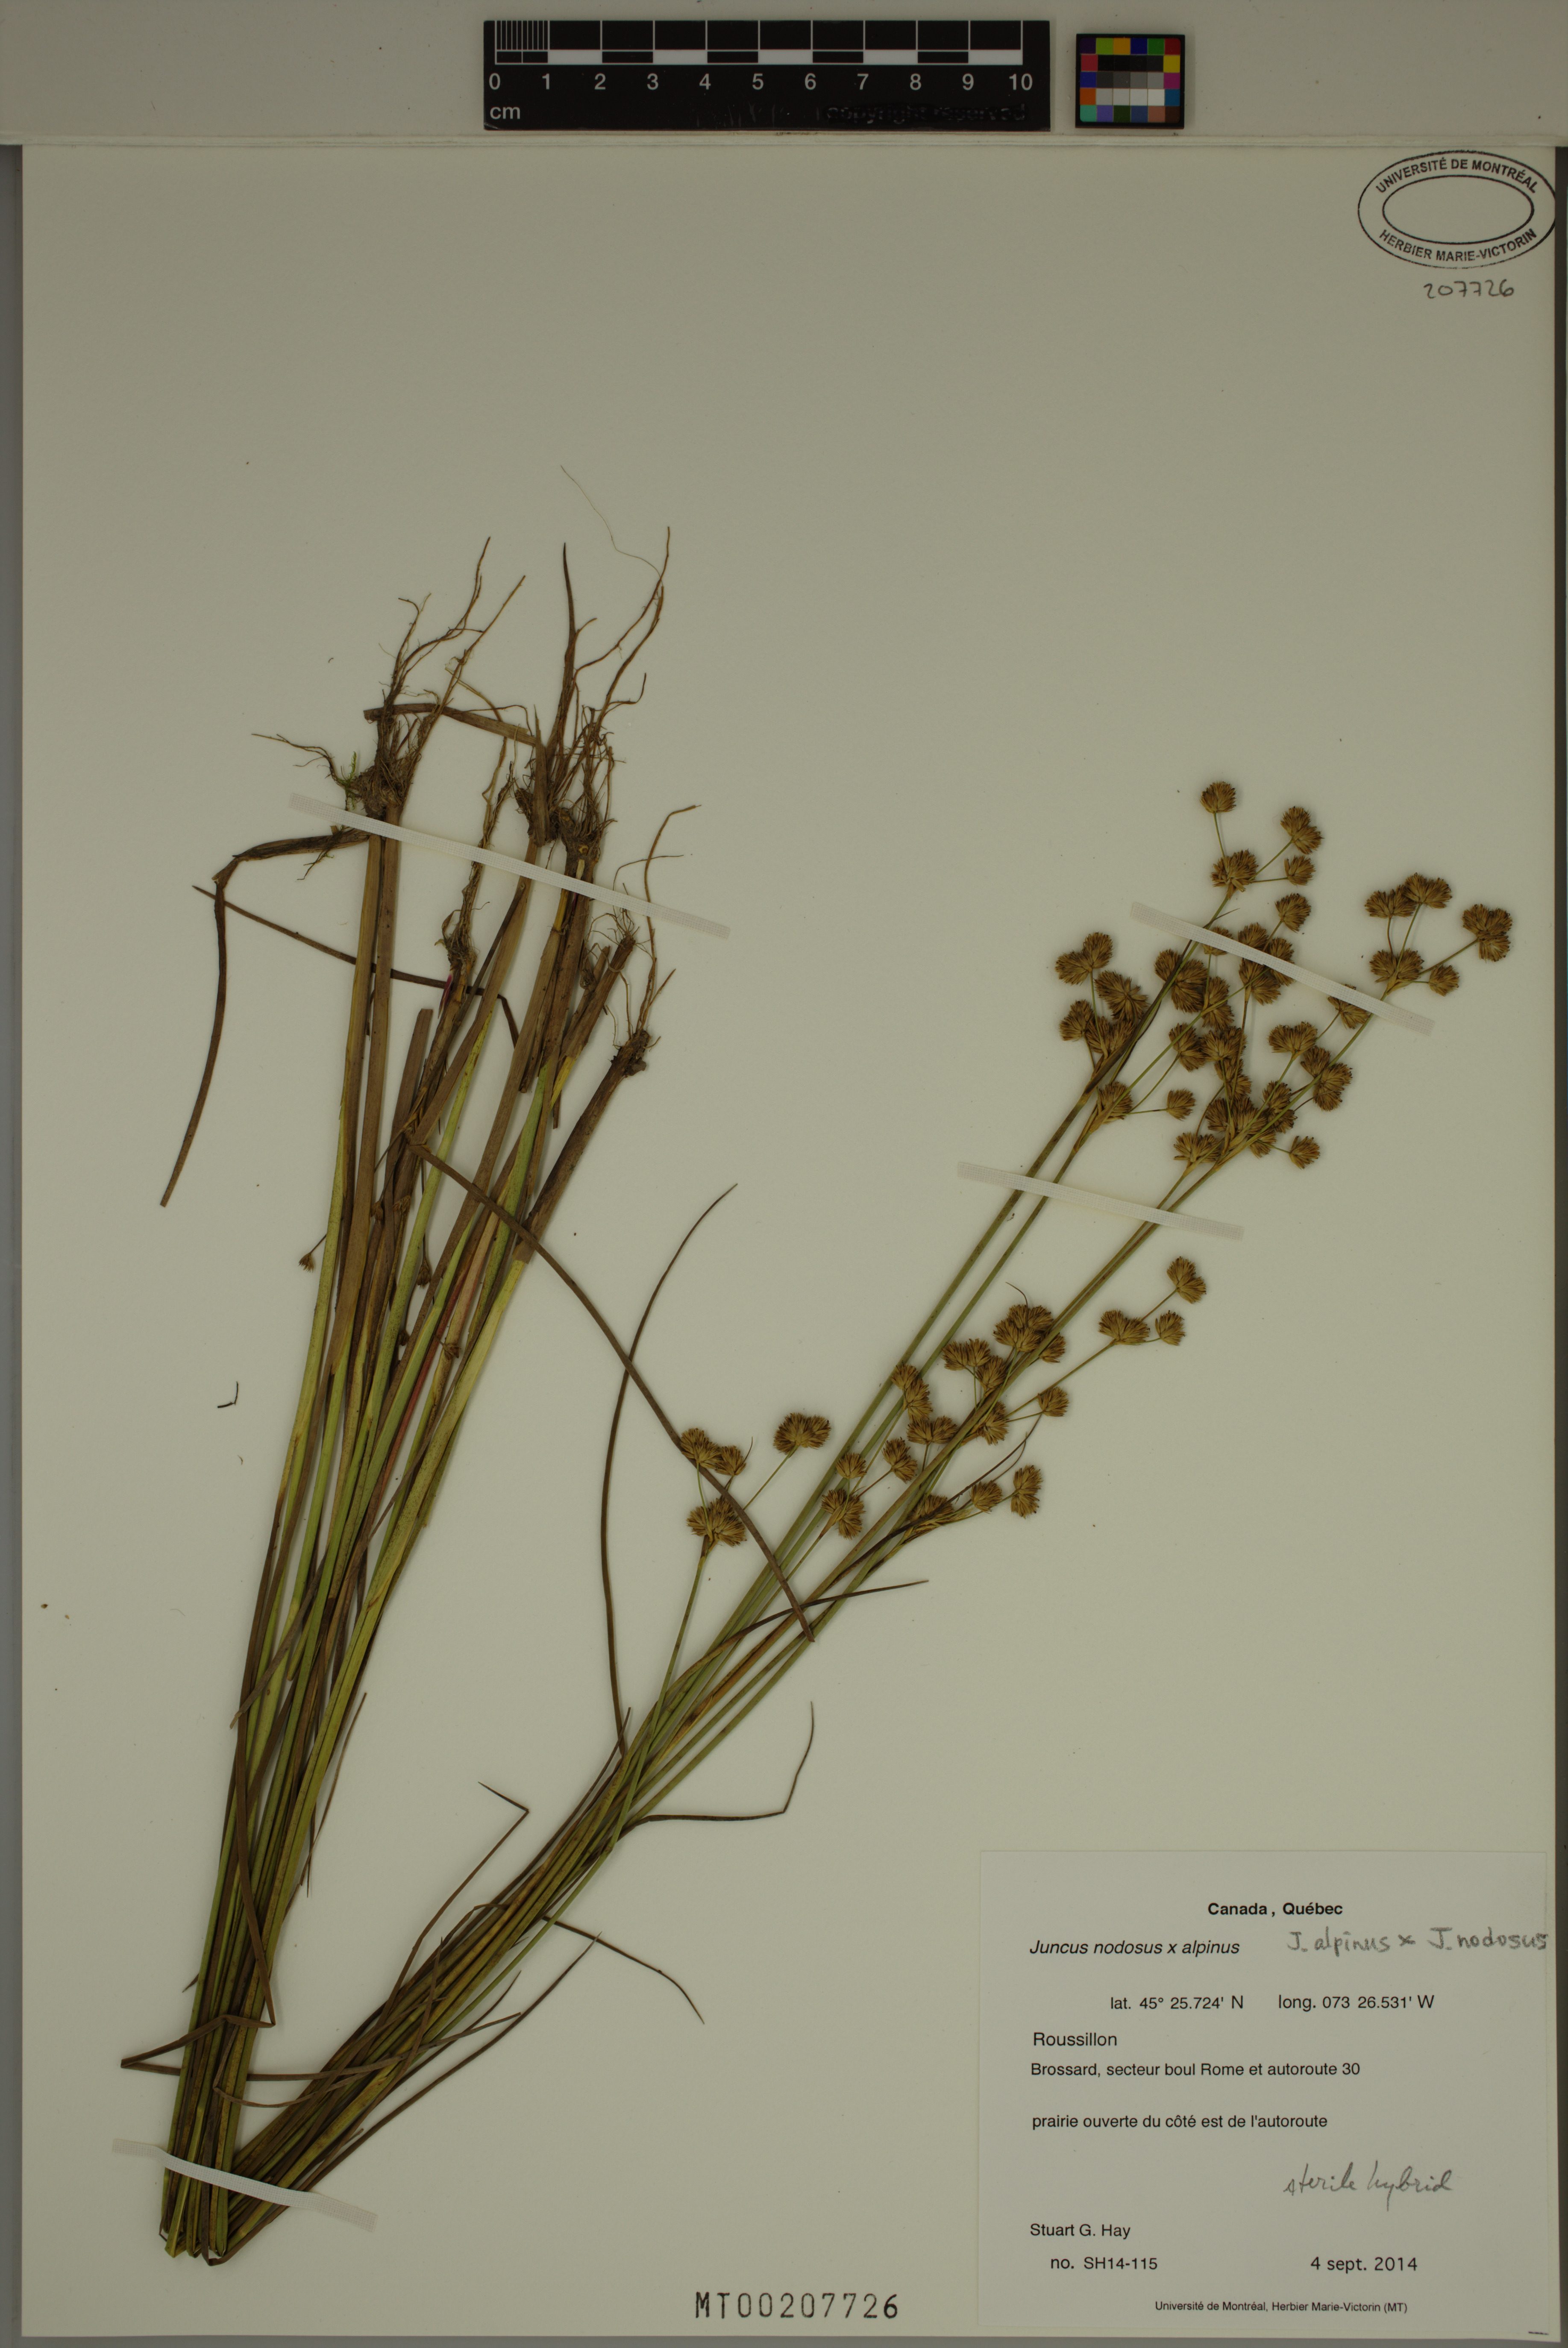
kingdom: Plantae
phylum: Tracheophyta
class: Liliopsida
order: Poales
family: Juncaceae
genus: Juncus
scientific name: Juncus nodosiformis
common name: Hybrid rush
